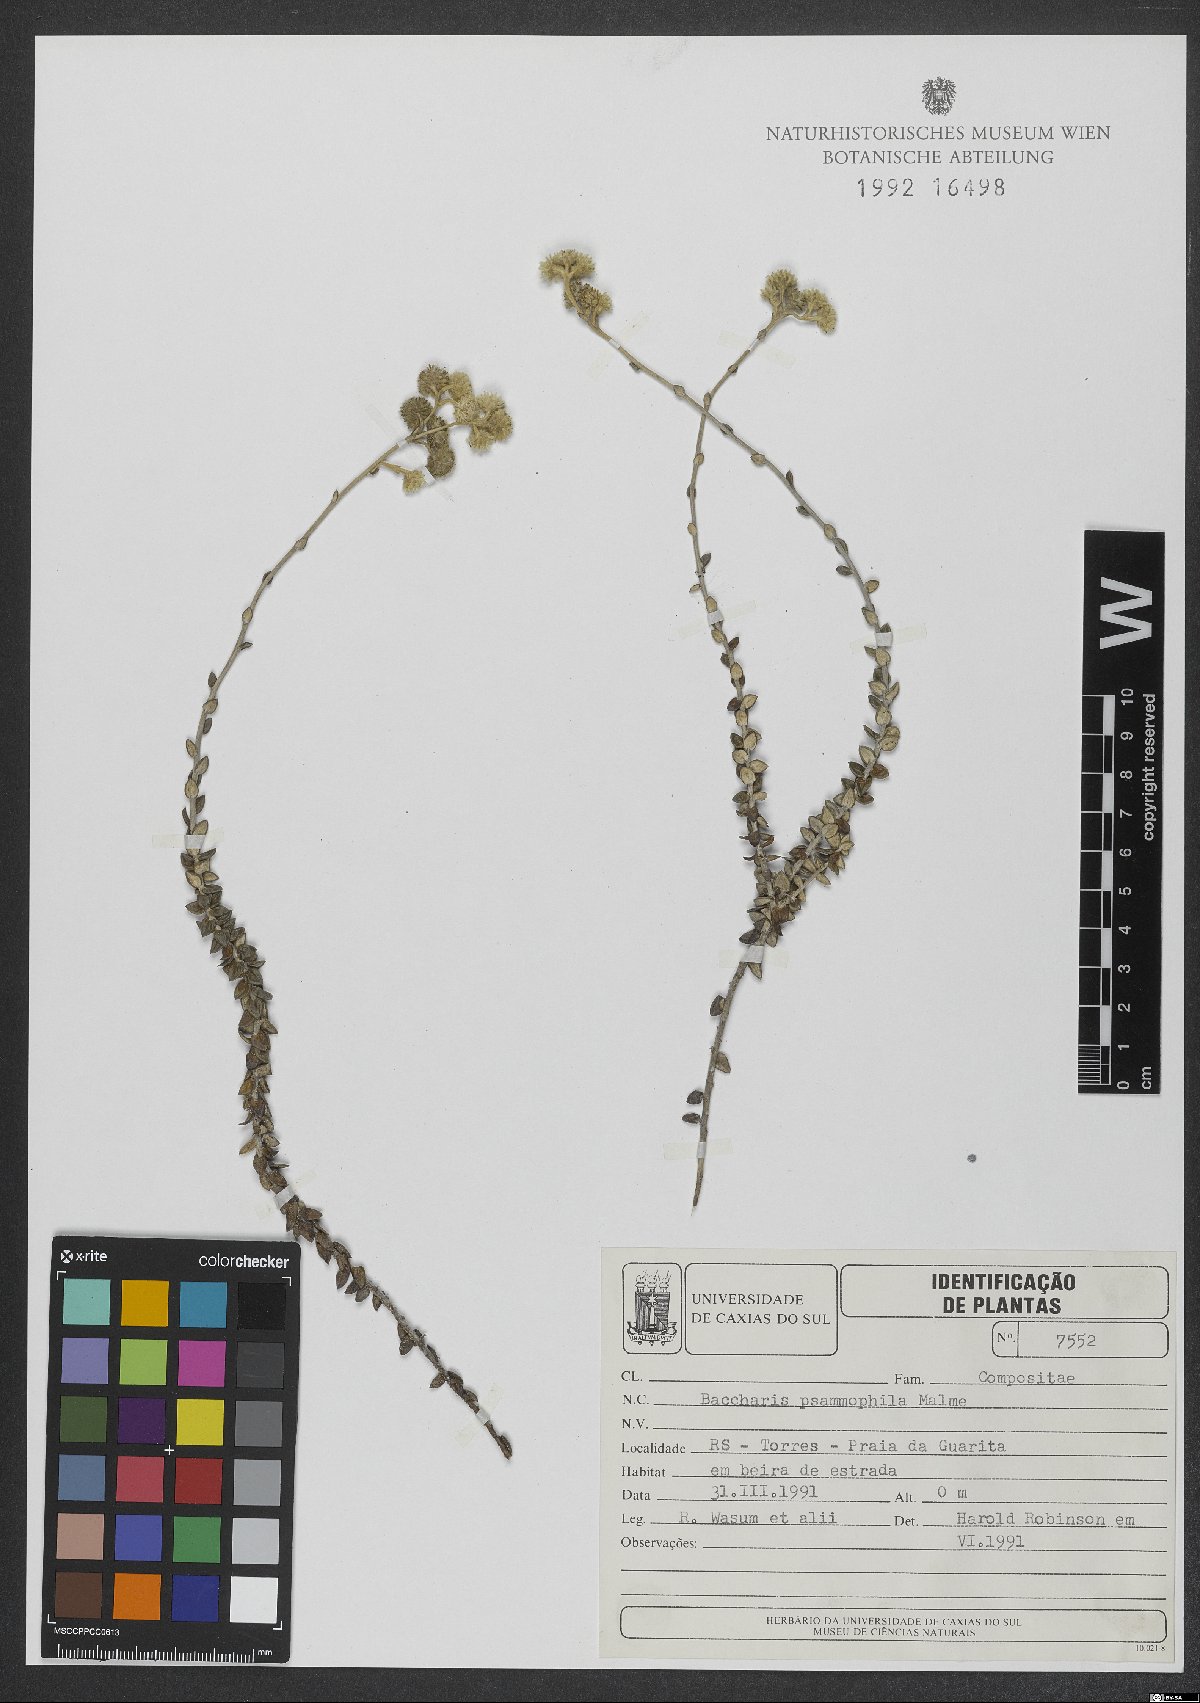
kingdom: Plantae
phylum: Tracheophyta
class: Magnoliopsida
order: Asterales
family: Asteraceae
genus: Baccharis
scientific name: Baccharis psammophila
